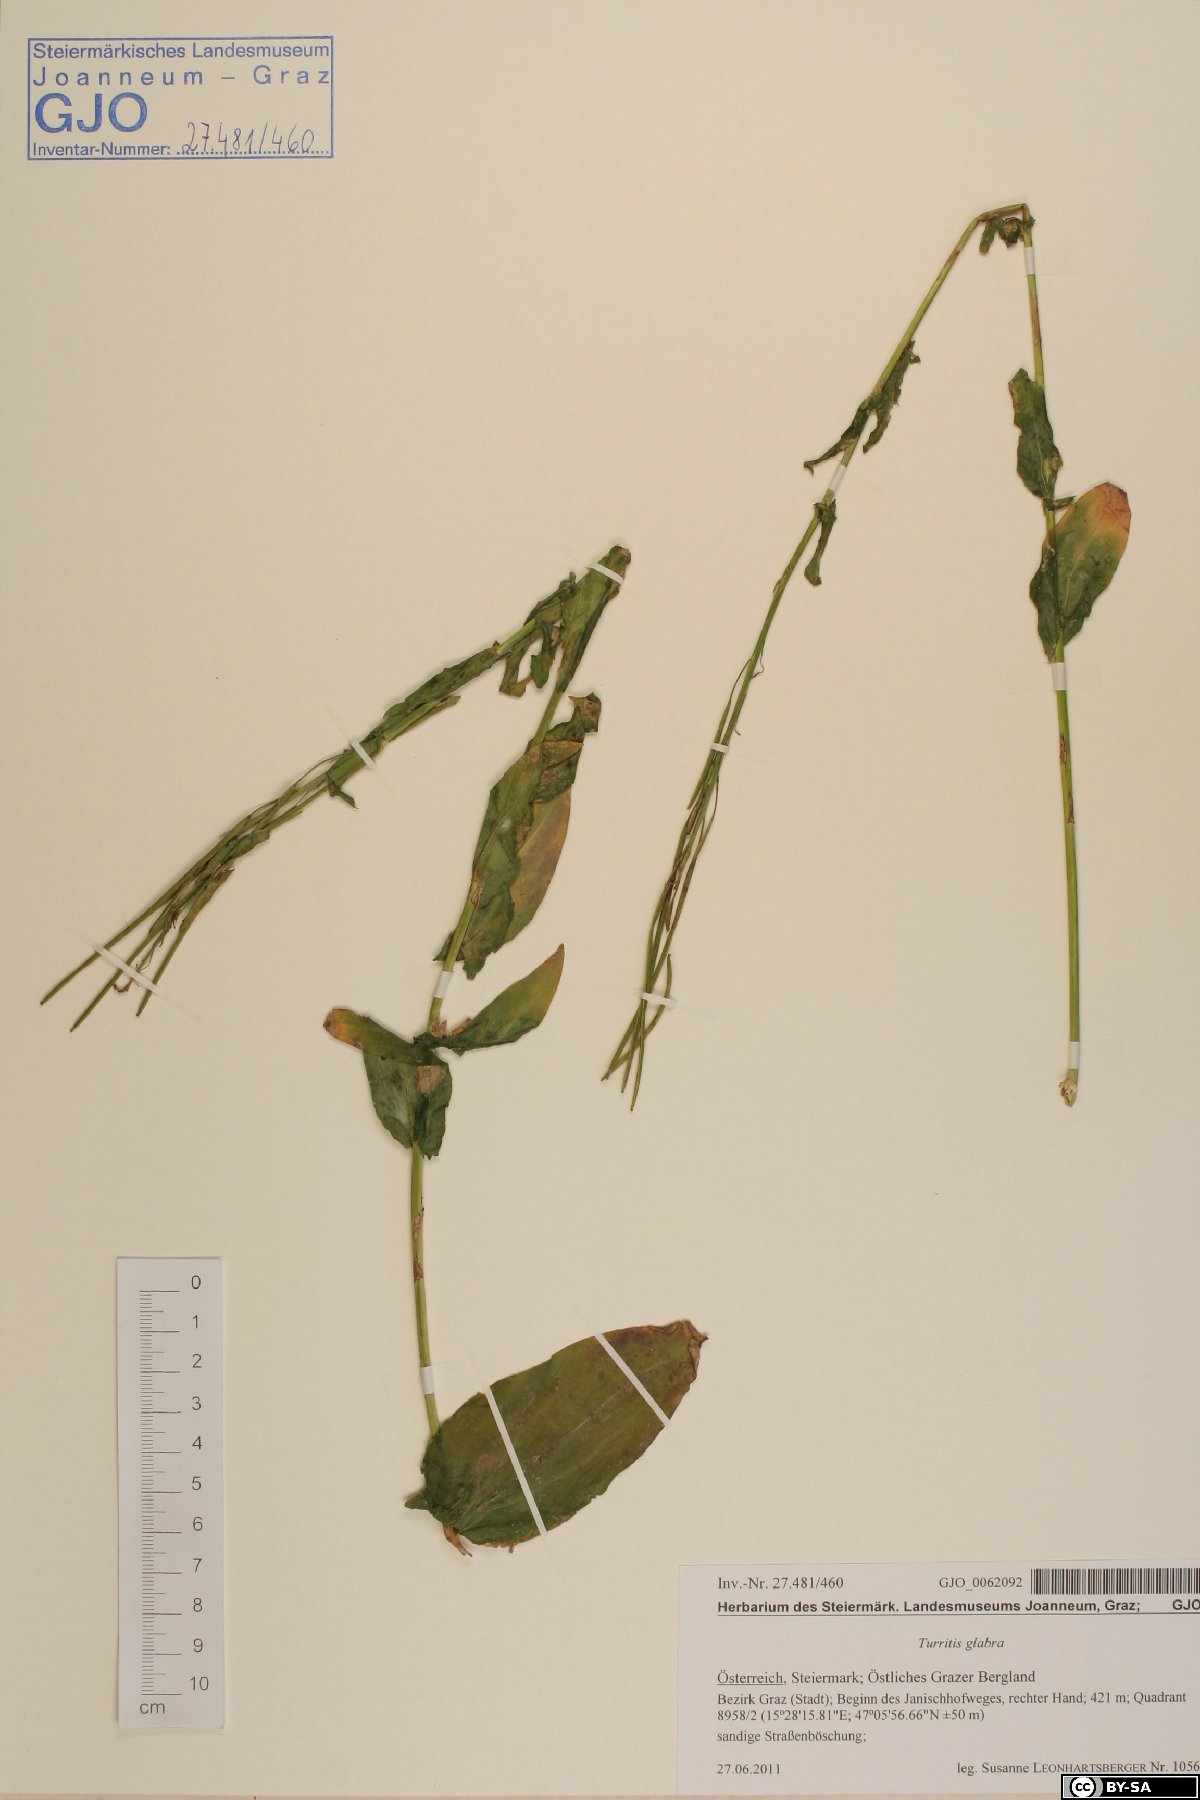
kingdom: Plantae
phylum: Tracheophyta
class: Magnoliopsida
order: Brassicales
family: Brassicaceae
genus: Turritis
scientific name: Turritis glabra
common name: Tower rockcress
